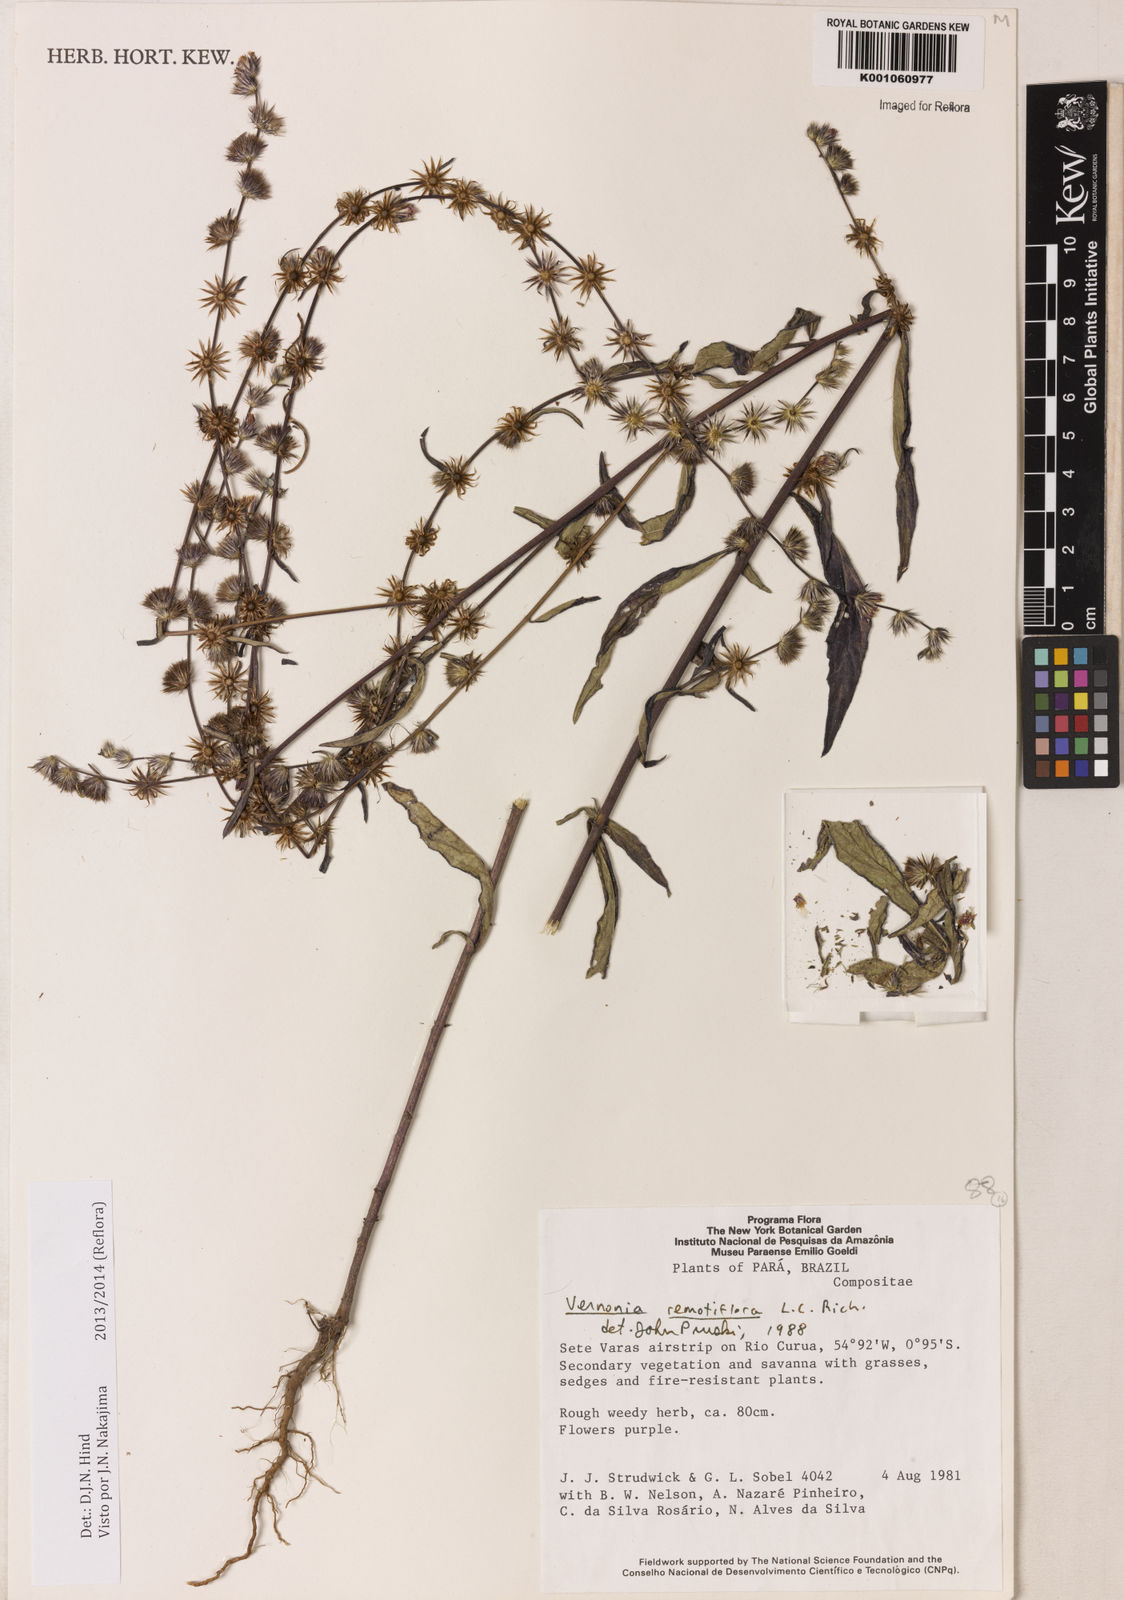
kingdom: Plantae
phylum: Tracheophyta
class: Magnoliopsida
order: Asterales
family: Asteraceae
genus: Lepidaploa
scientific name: Lepidaploa remotiflora
